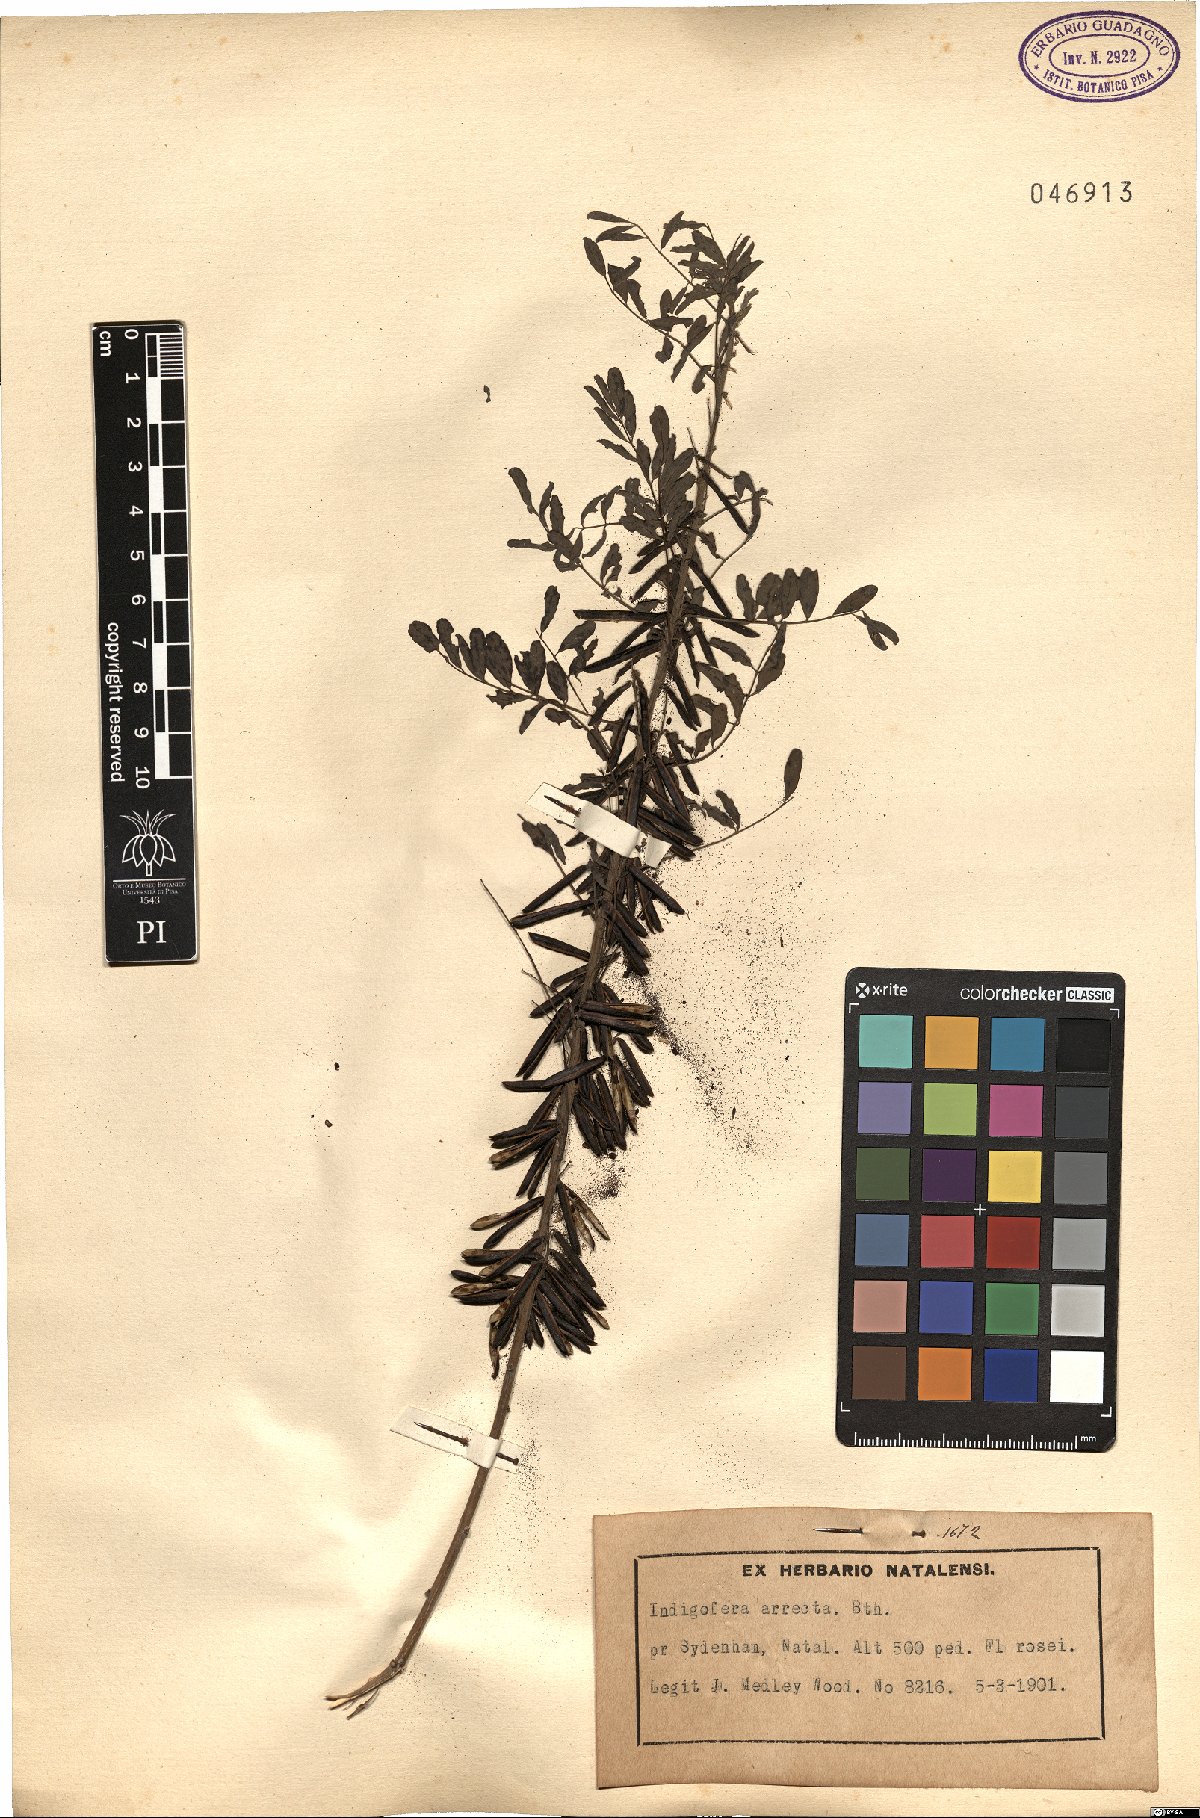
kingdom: Plantae
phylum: Tracheophyta
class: Magnoliopsida
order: Fabales
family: Fabaceae
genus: Indigofera
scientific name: Indigofera arrecta
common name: Bengal indigo
